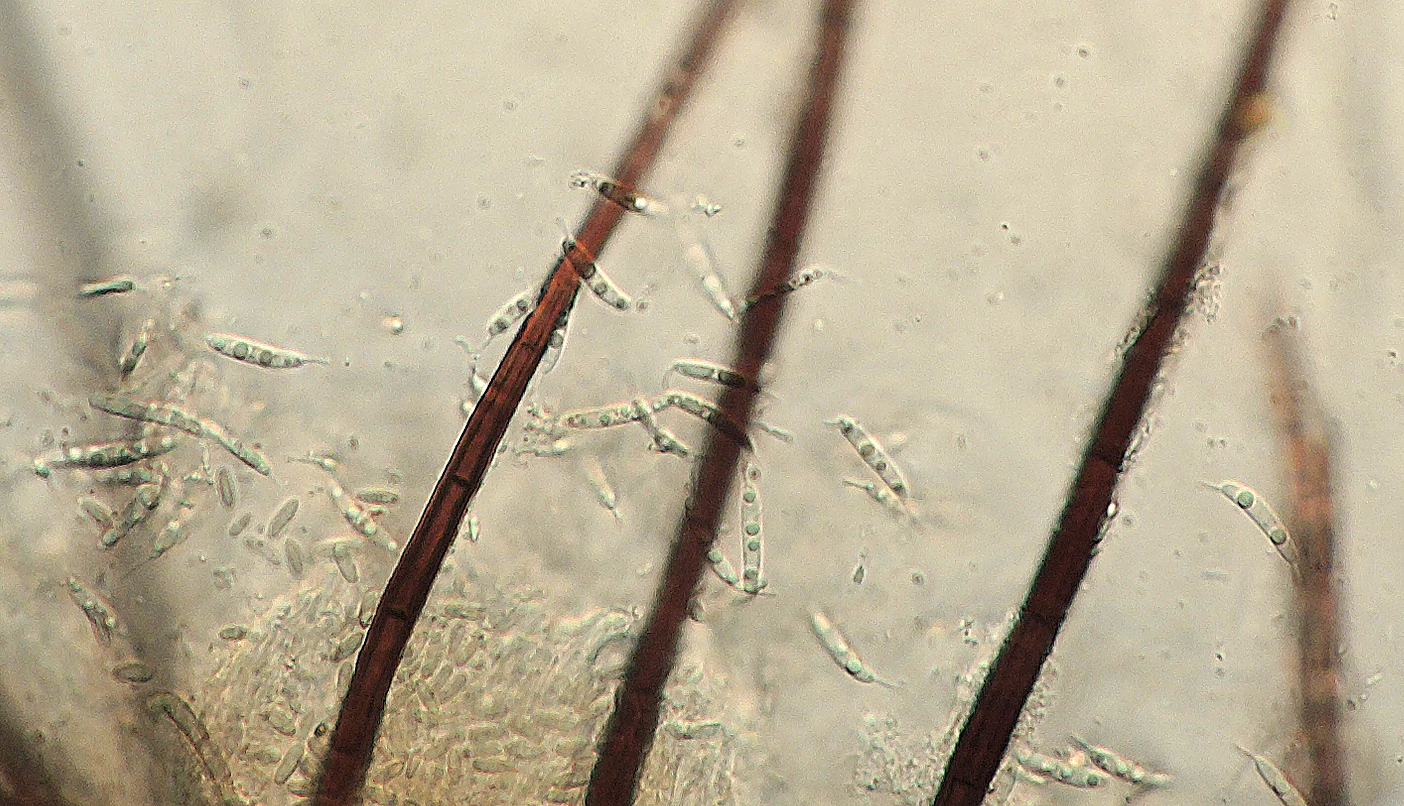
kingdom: Fungi
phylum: Ascomycota
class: Sordariomycetes
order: Phomatosporales
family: Phomatosporaceae
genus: Phomatospora
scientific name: Phomatospora dinemasporium
